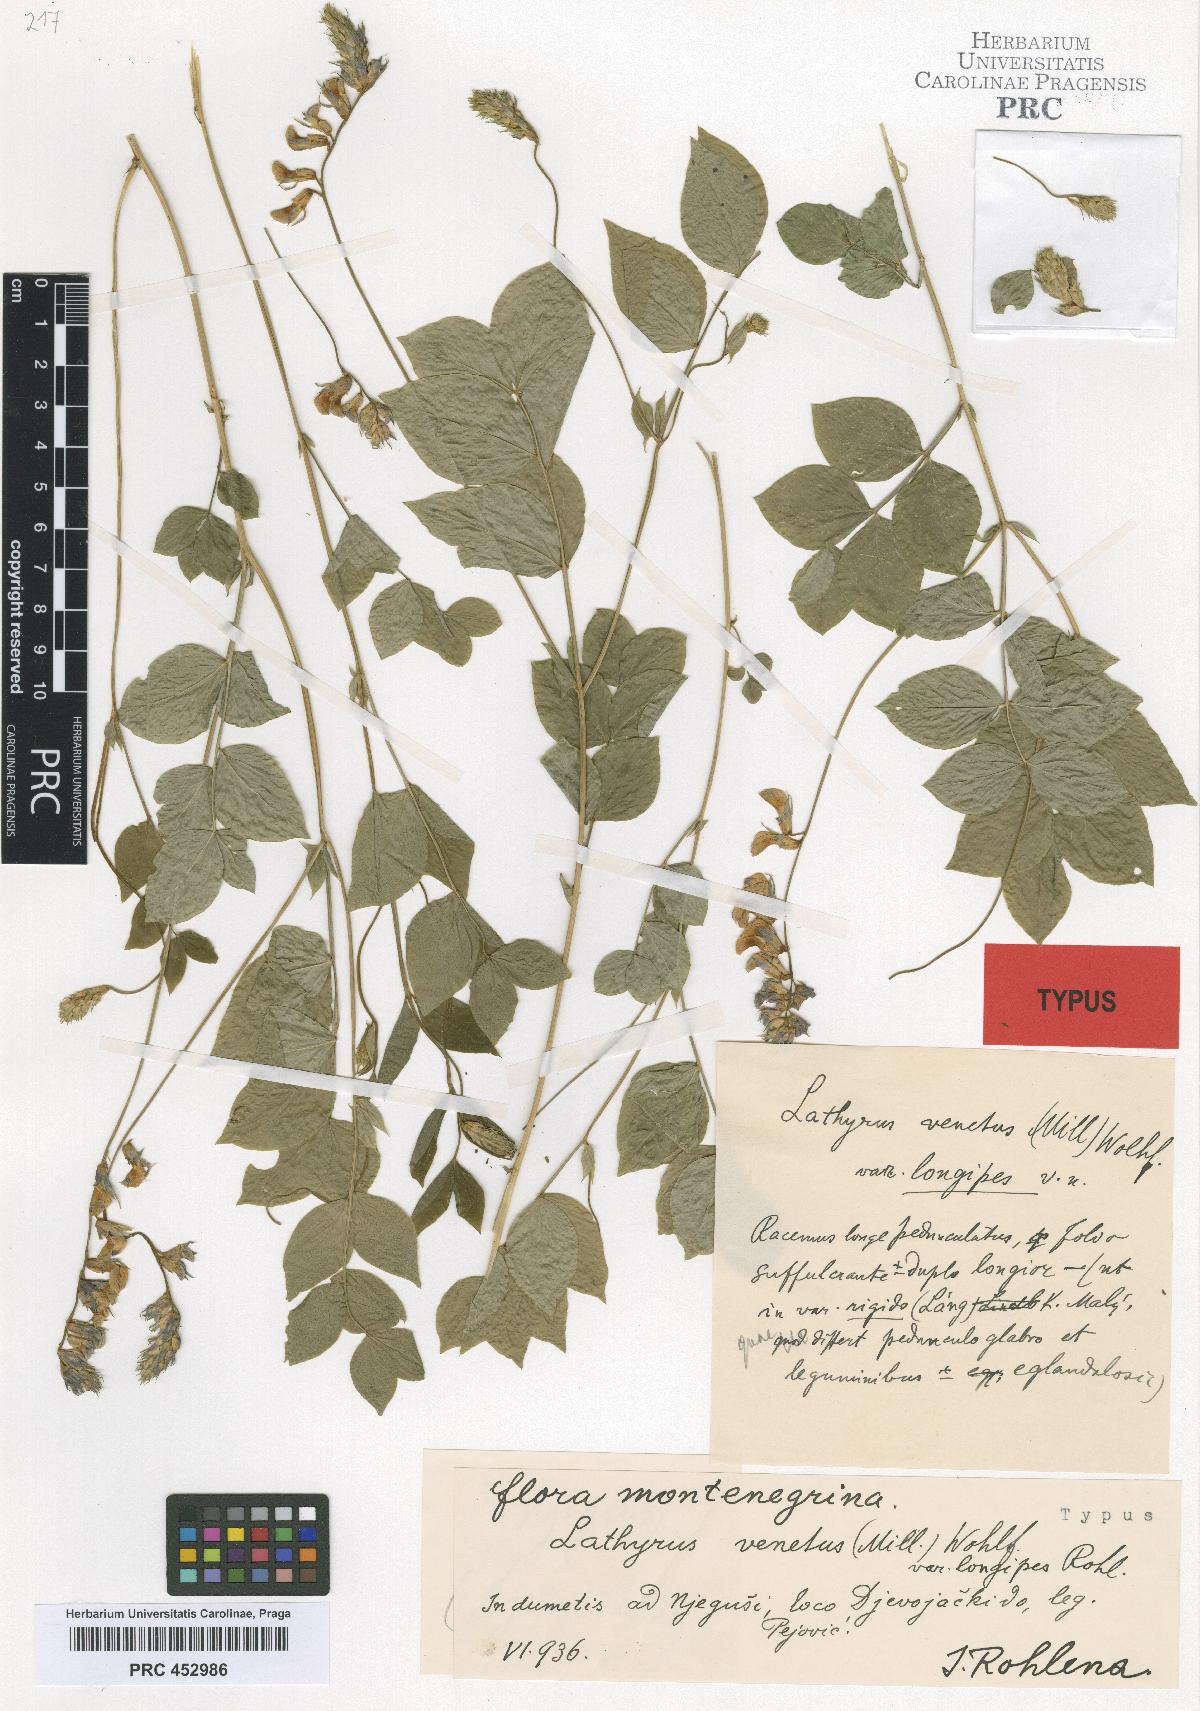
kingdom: Plantae
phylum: Tracheophyta
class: Magnoliopsida
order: Fabales
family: Fabaceae
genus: Lathyrus
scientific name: Lathyrus venetus
